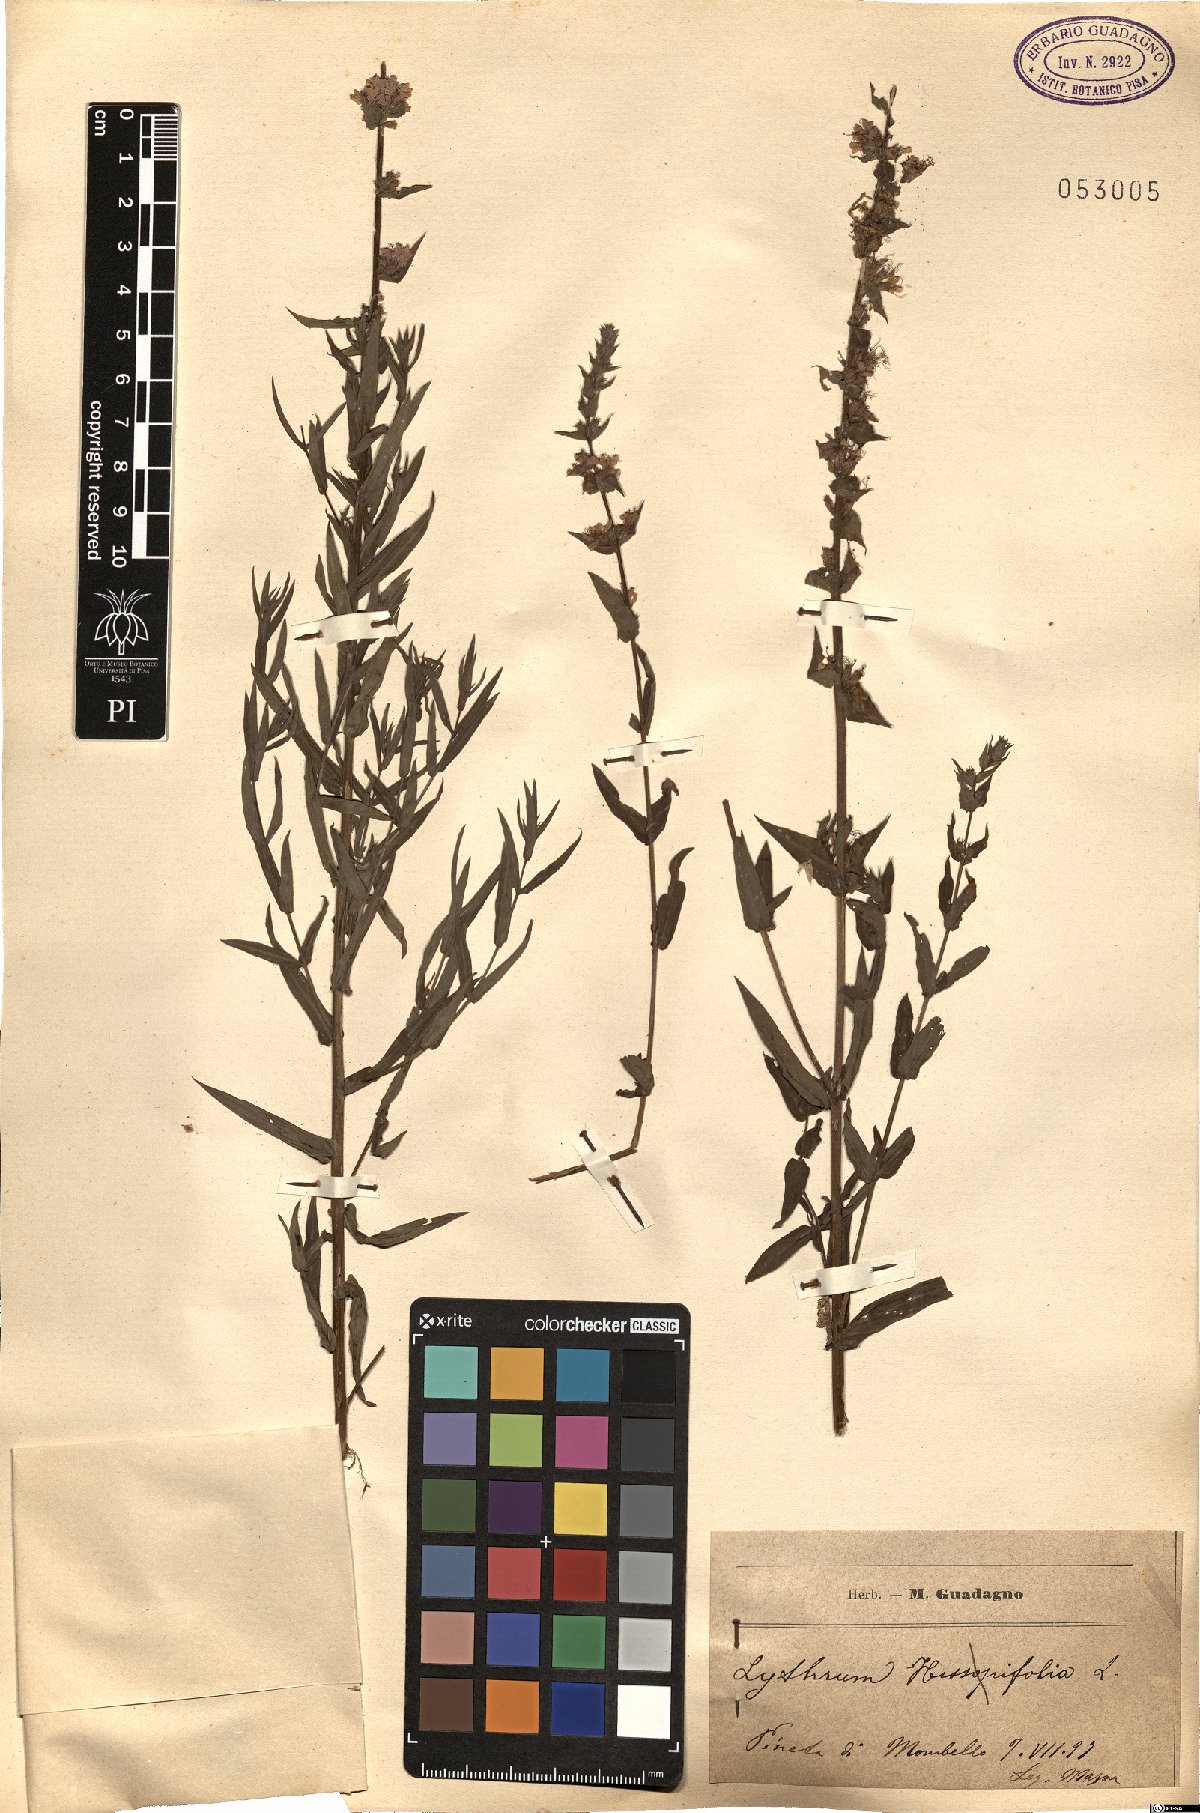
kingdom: Plantae
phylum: Tracheophyta
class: Magnoliopsida
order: Myrtales
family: Lythraceae
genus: Lythrum
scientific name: Lythrum
